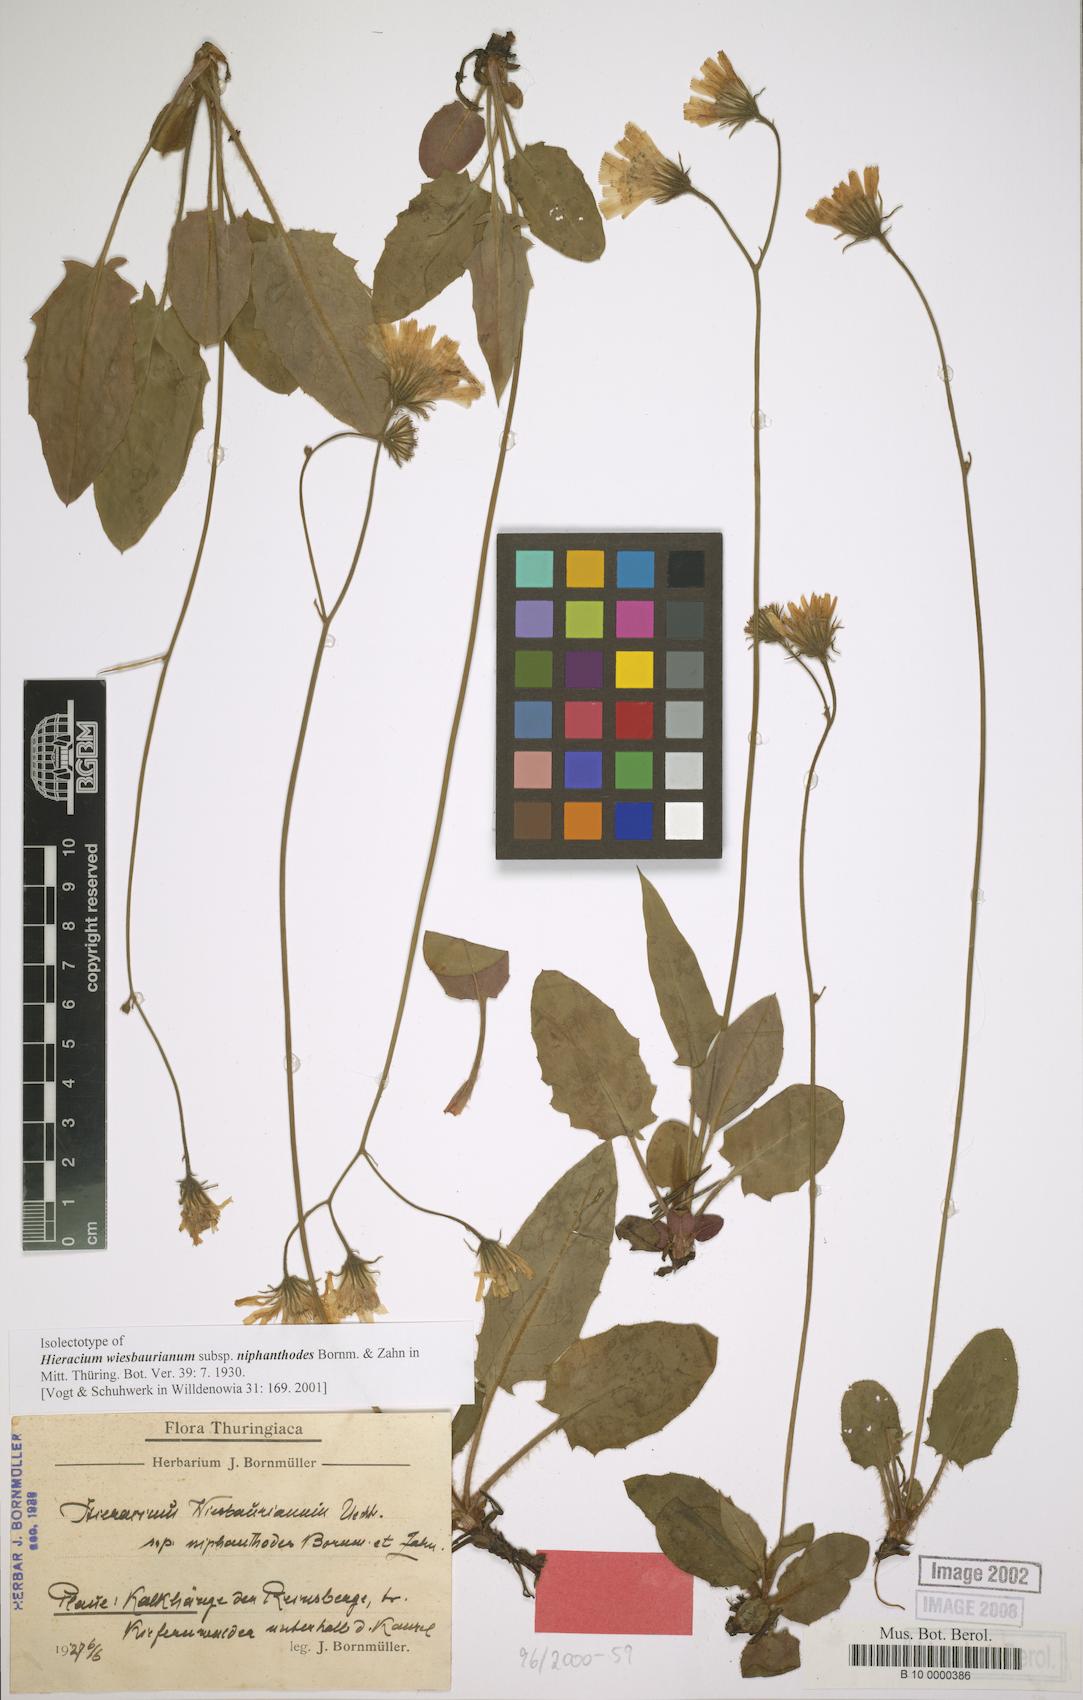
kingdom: Plantae
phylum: Tracheophyta
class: Magnoliopsida
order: Asterales
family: Asteraceae
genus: Hieracium
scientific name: Hieracium hypochoeroides
